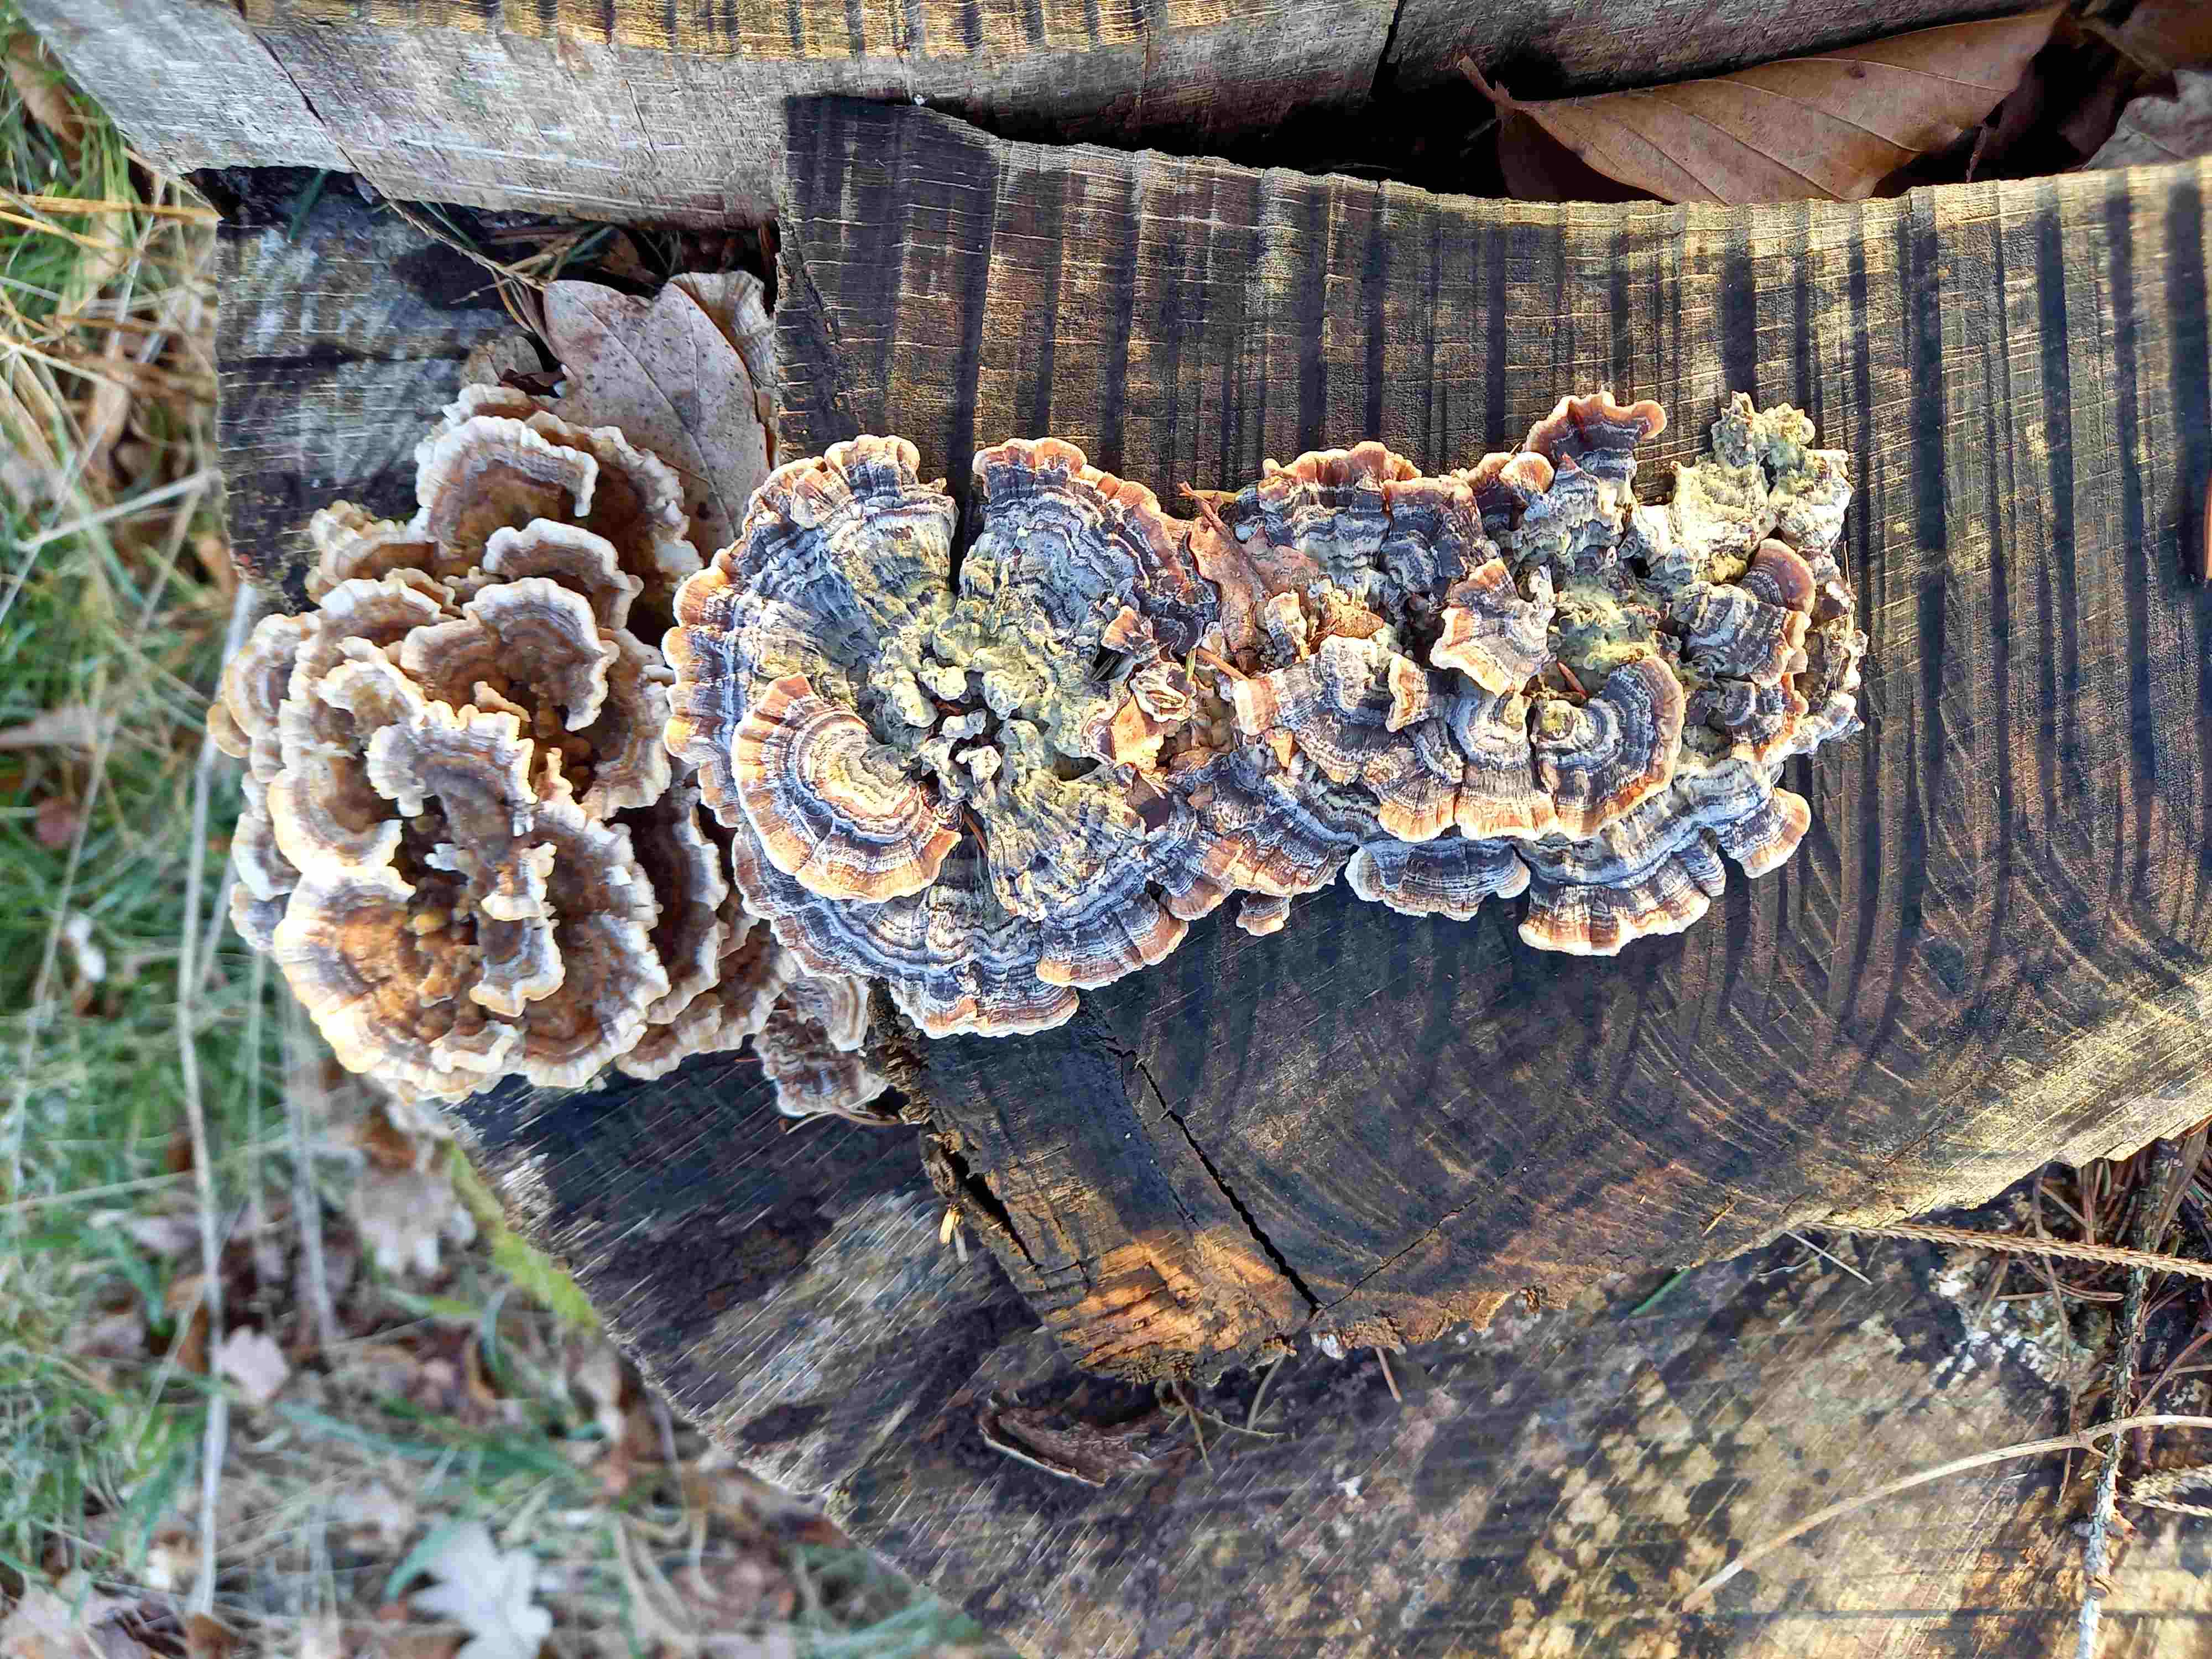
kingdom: Fungi
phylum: Basidiomycota
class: Agaricomycetes
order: Polyporales
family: Polyporaceae
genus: Trametes
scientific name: Trametes versicolor
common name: broget læderporesvamp
